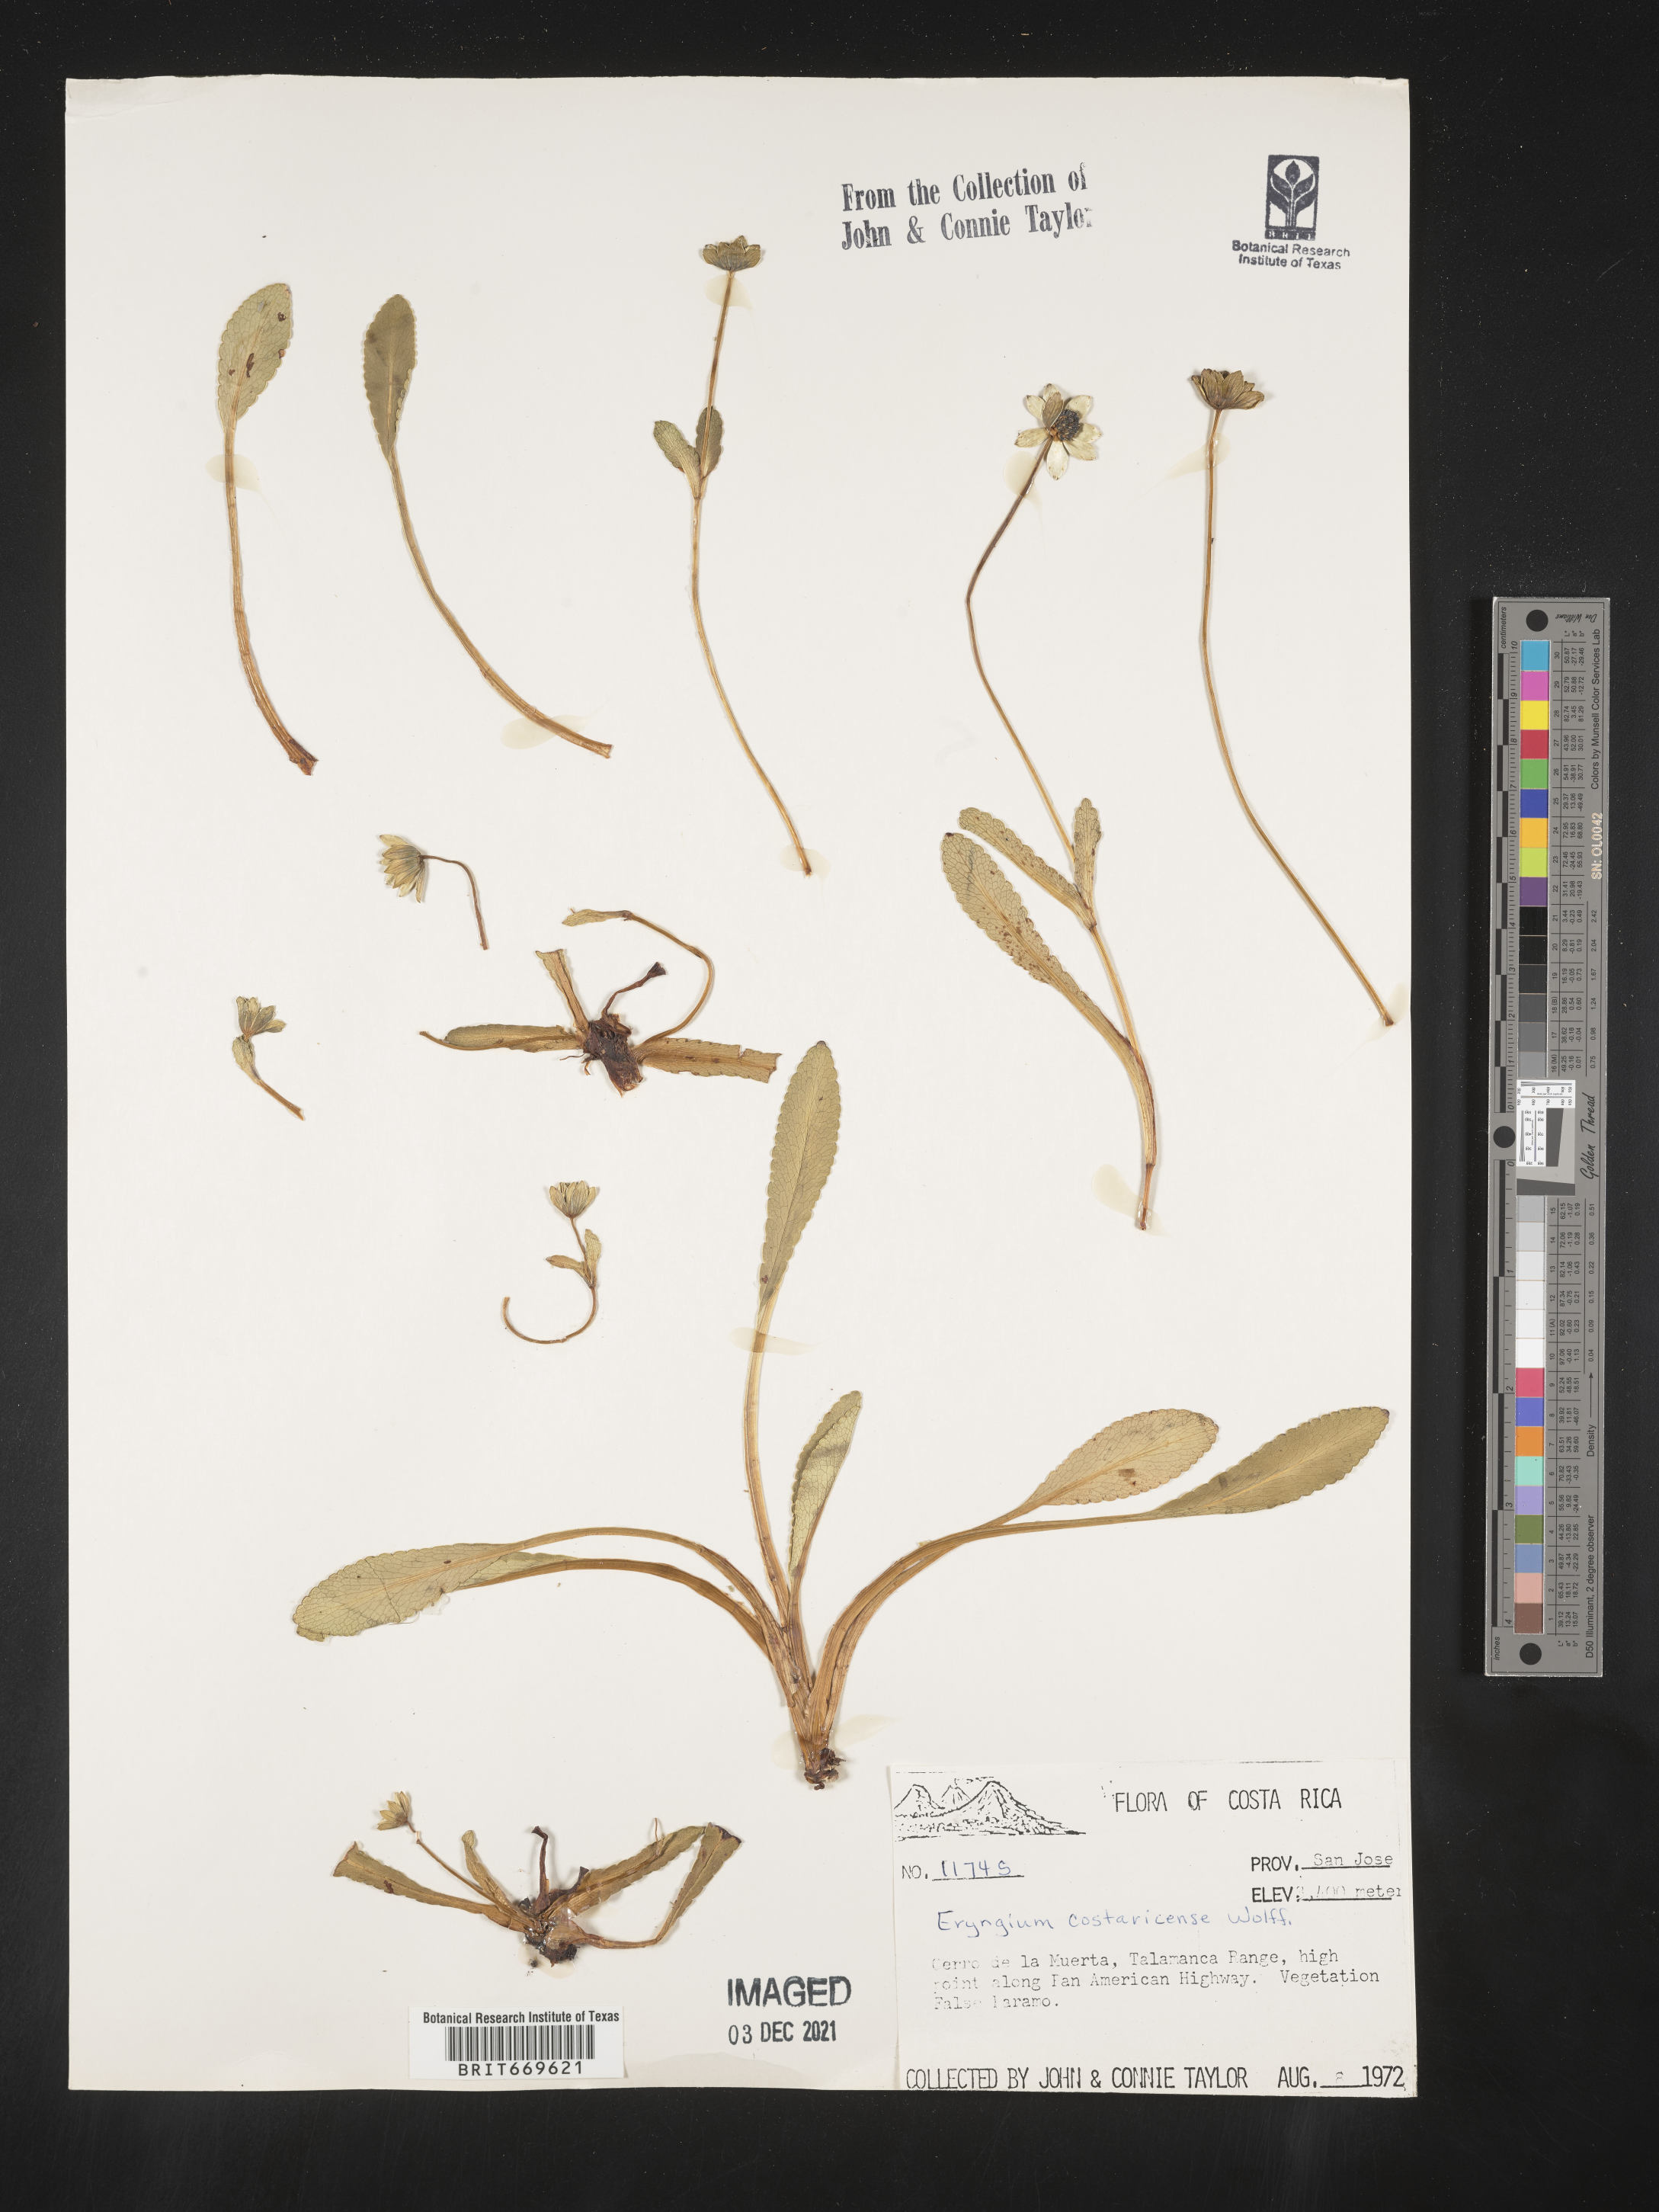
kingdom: Plantae
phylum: Tracheophyta
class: Magnoliopsida
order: Apiales
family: Apiaceae
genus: Eryngium
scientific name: Eryngium
